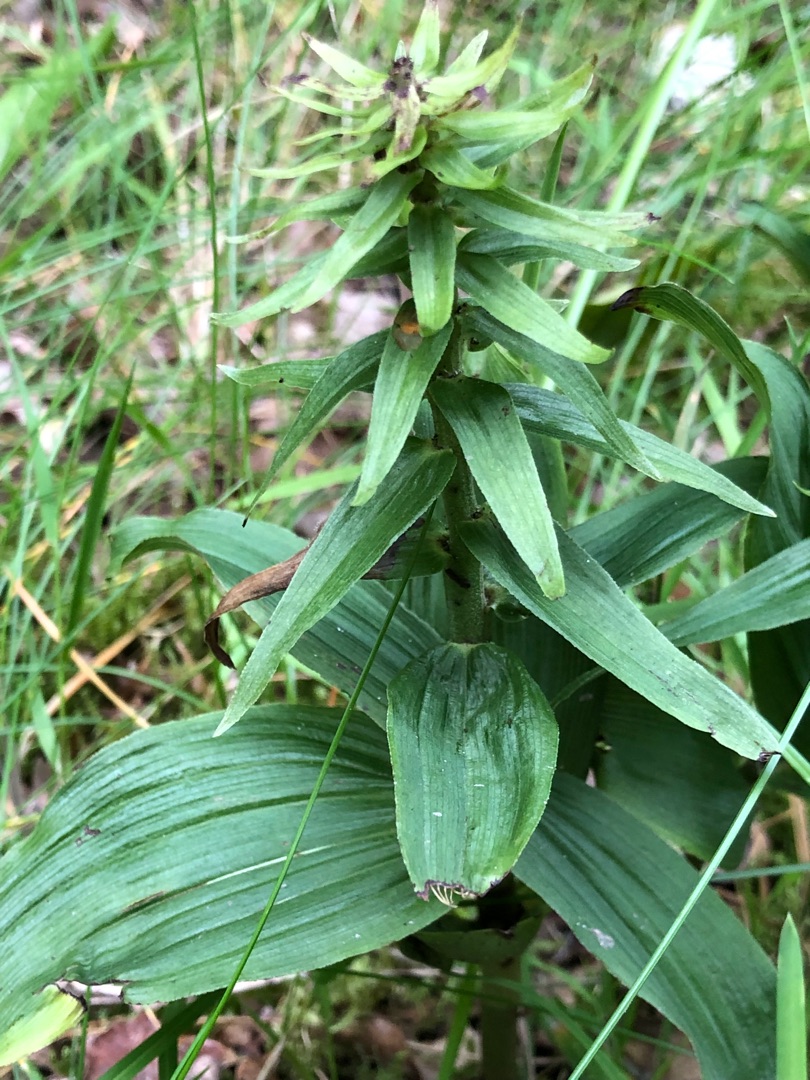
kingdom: Plantae
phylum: Tracheophyta
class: Liliopsida
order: Asparagales
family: Orchidaceae
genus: Epipactis
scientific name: Epipactis helleborine
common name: Skov-hullæbe
